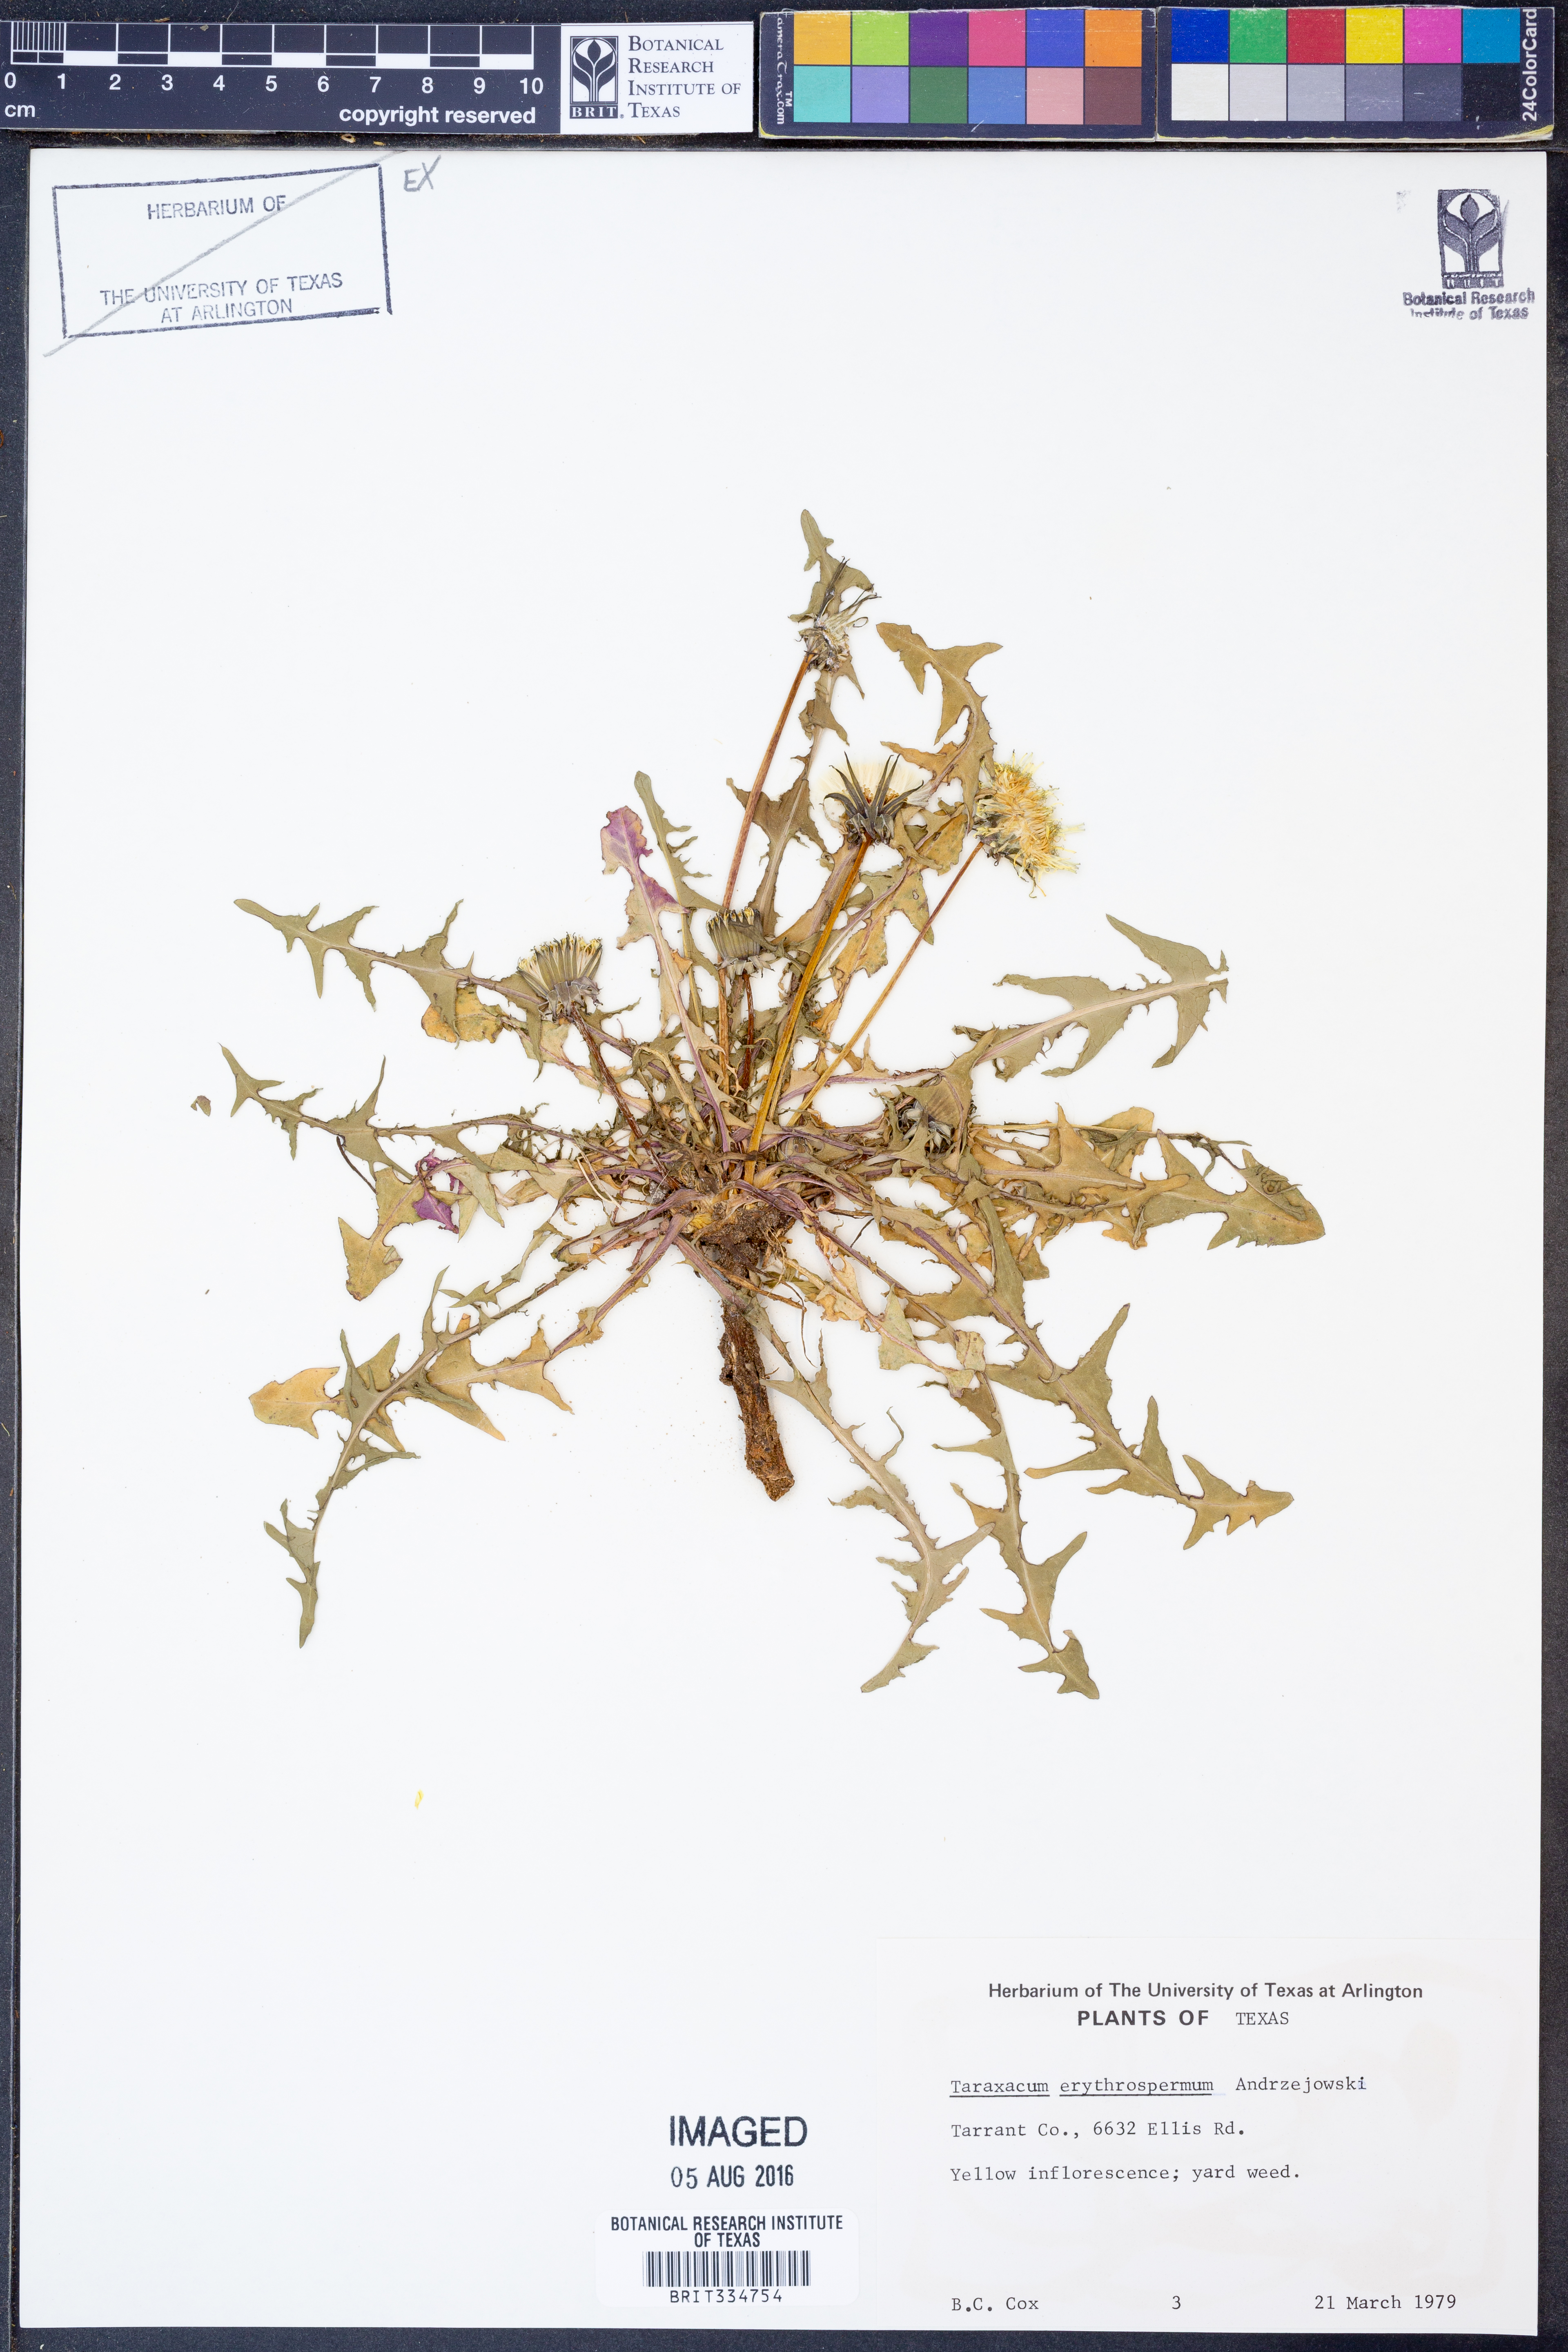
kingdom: Plantae
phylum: Tracheophyta
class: Magnoliopsida
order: Asterales
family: Asteraceae
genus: Taraxacum
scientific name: Taraxacum erythrospermum
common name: Rock dandelion
